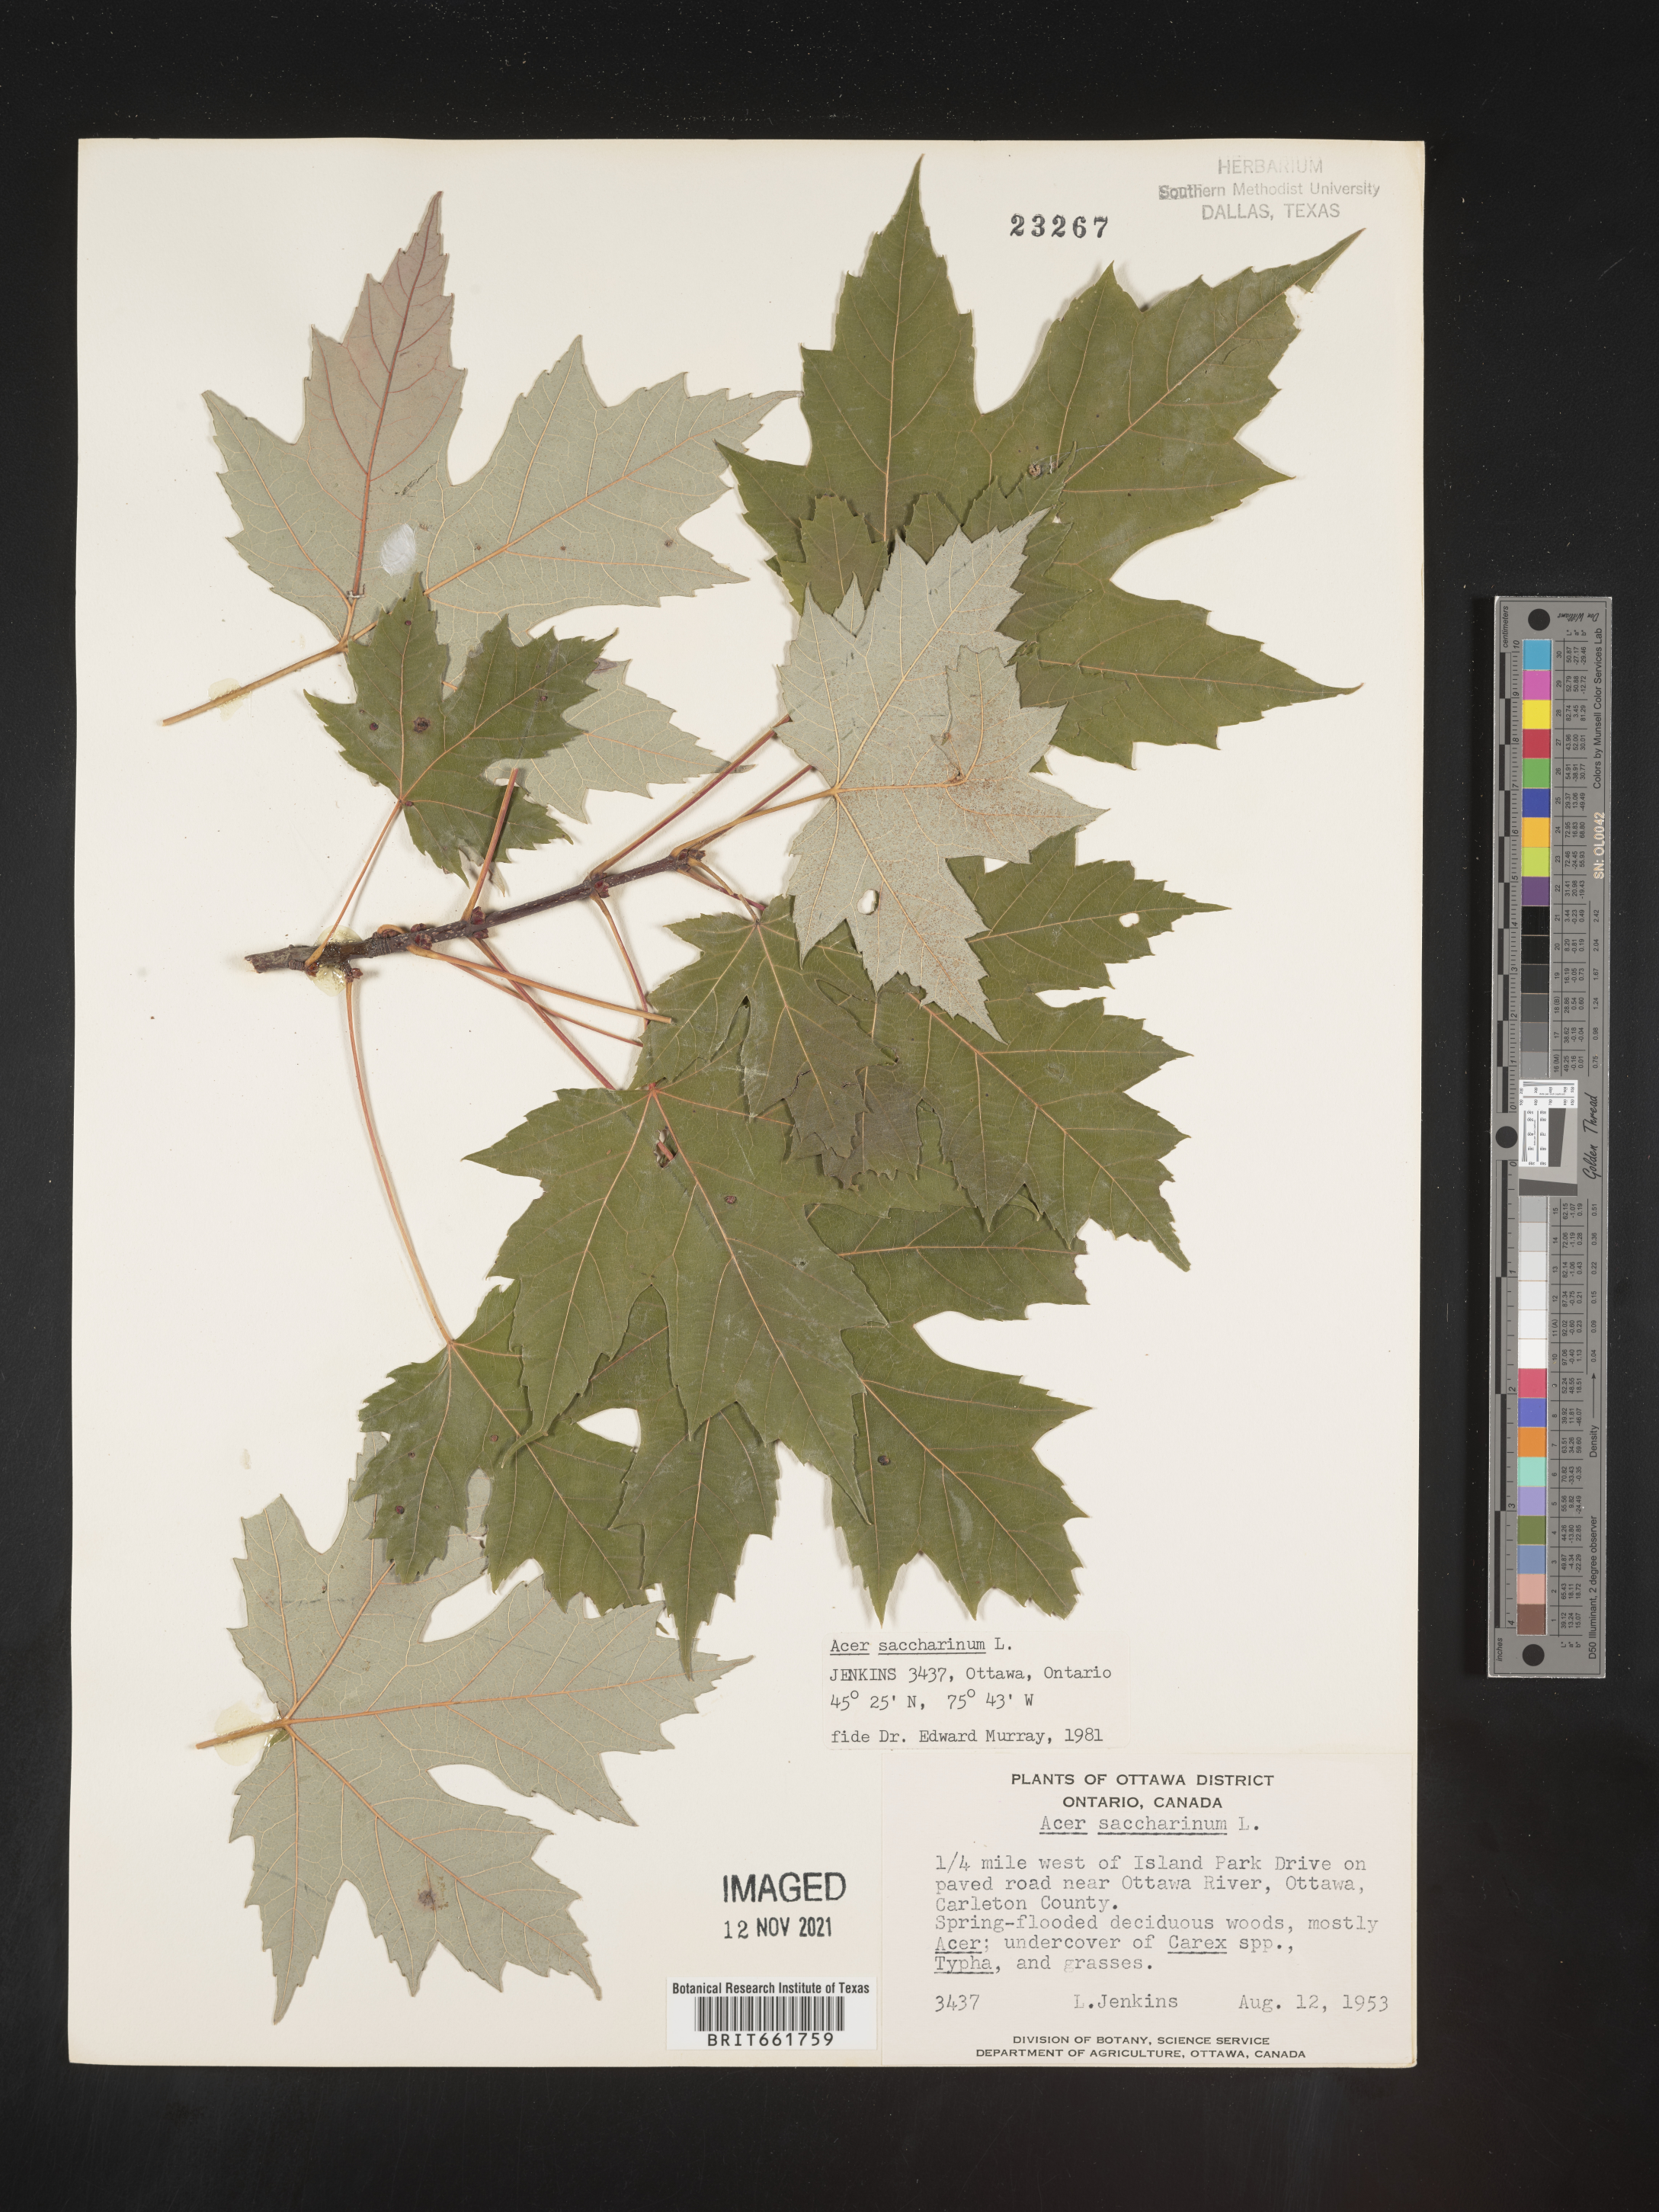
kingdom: Plantae
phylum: Tracheophyta
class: Magnoliopsida
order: Sapindales
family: Sapindaceae
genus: Acer
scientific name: Acer saccharinum
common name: Silver maple
